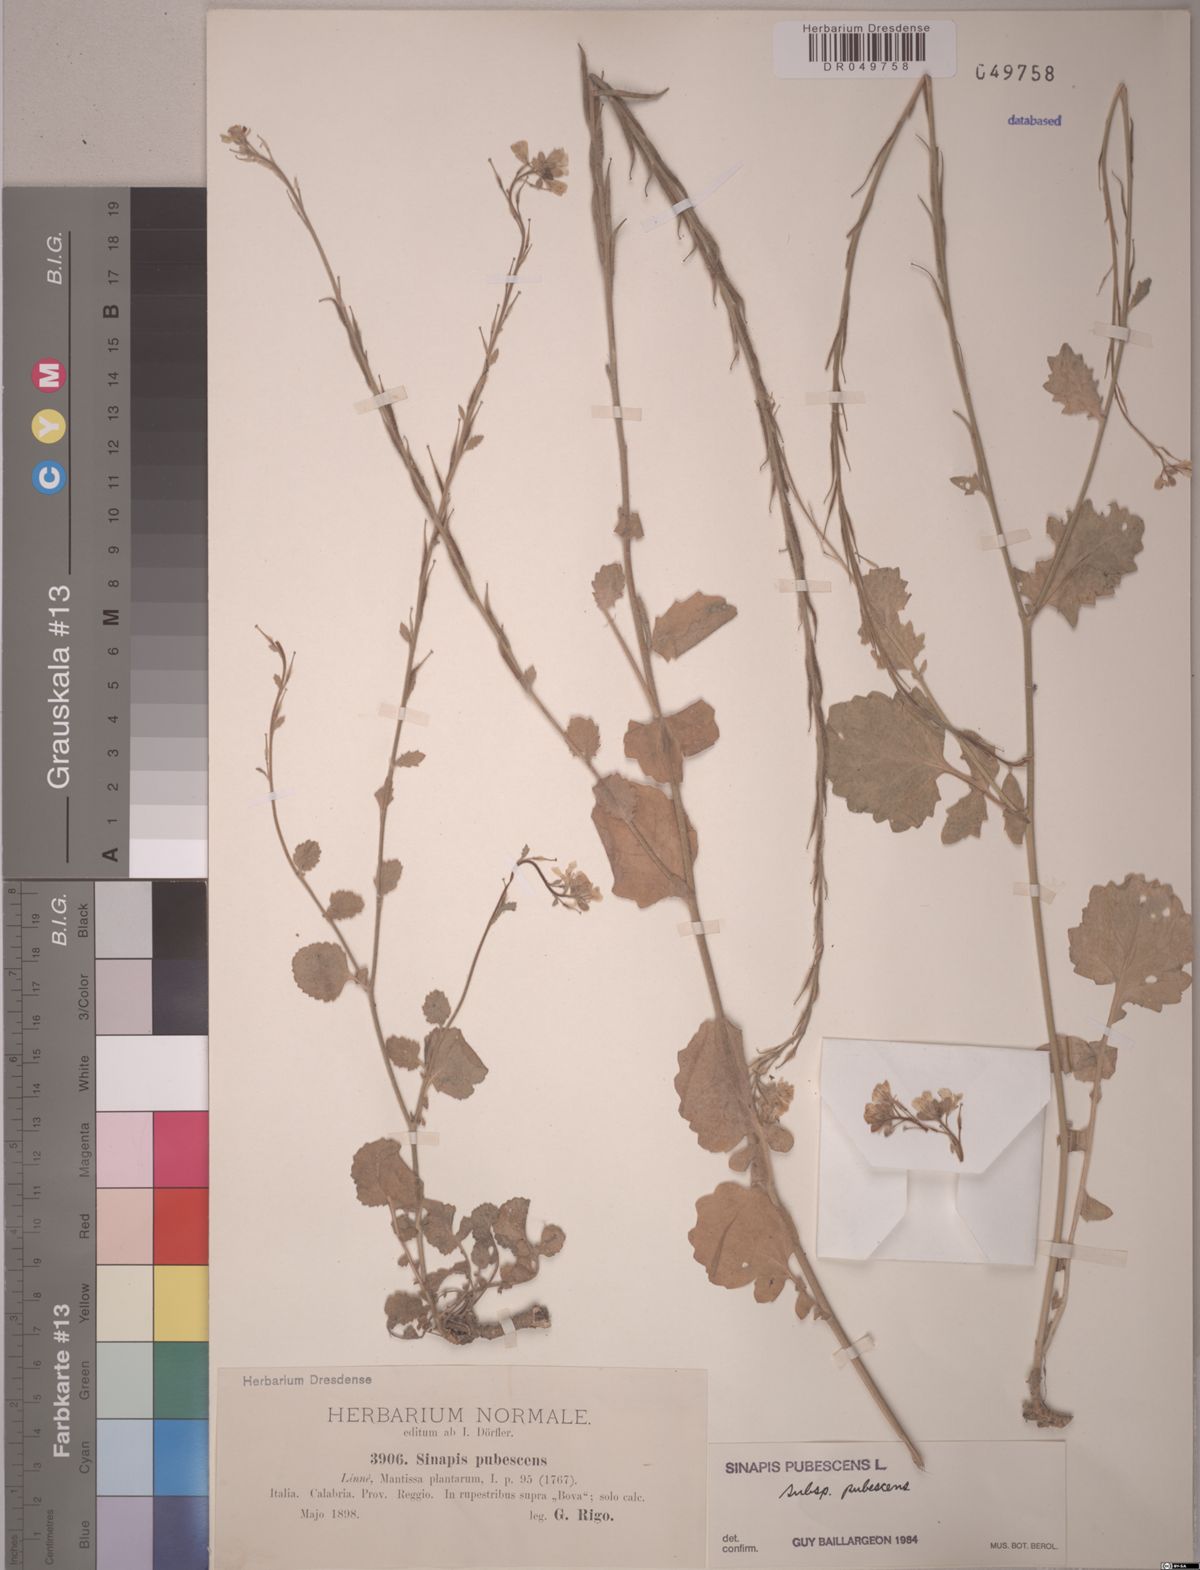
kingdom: Plantae
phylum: Tracheophyta
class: Magnoliopsida
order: Brassicales
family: Brassicaceae
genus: Sinapis
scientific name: Sinapis pubescens
